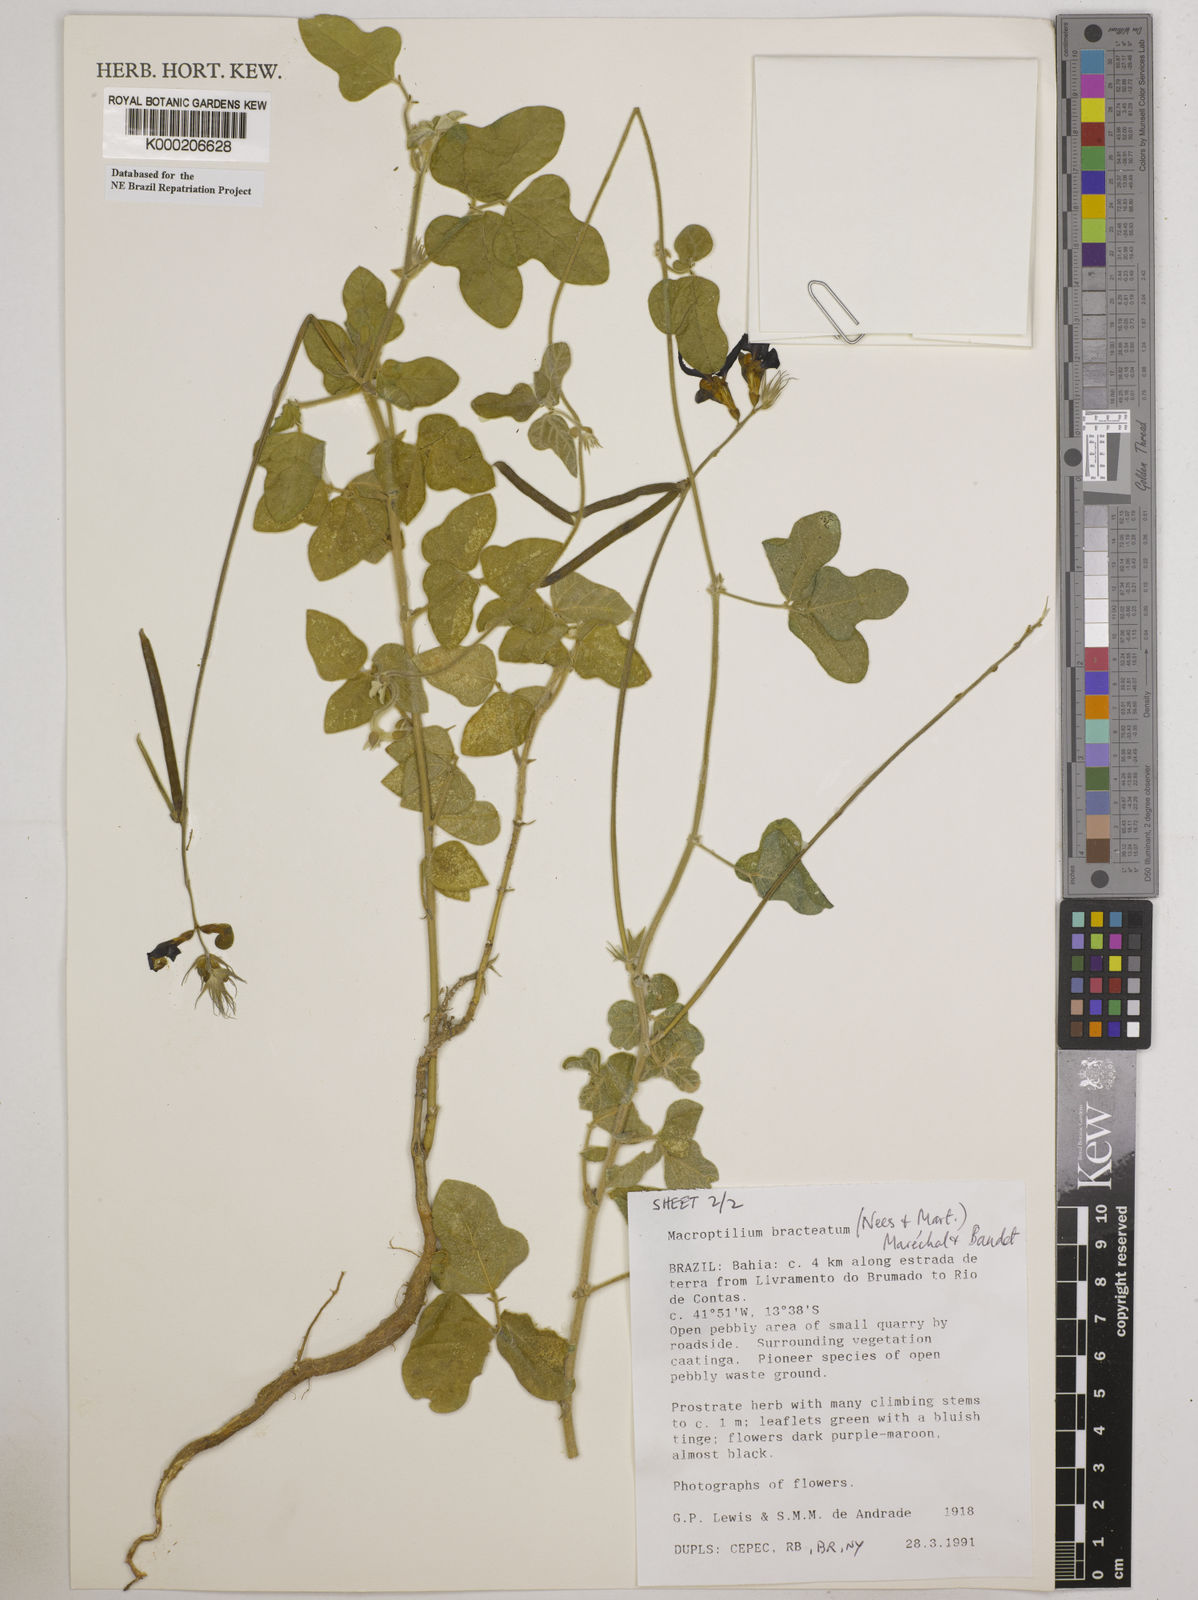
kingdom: Plantae
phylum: Tracheophyta
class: Magnoliopsida
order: Fabales
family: Fabaceae
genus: Macroptilium
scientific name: Macroptilium
